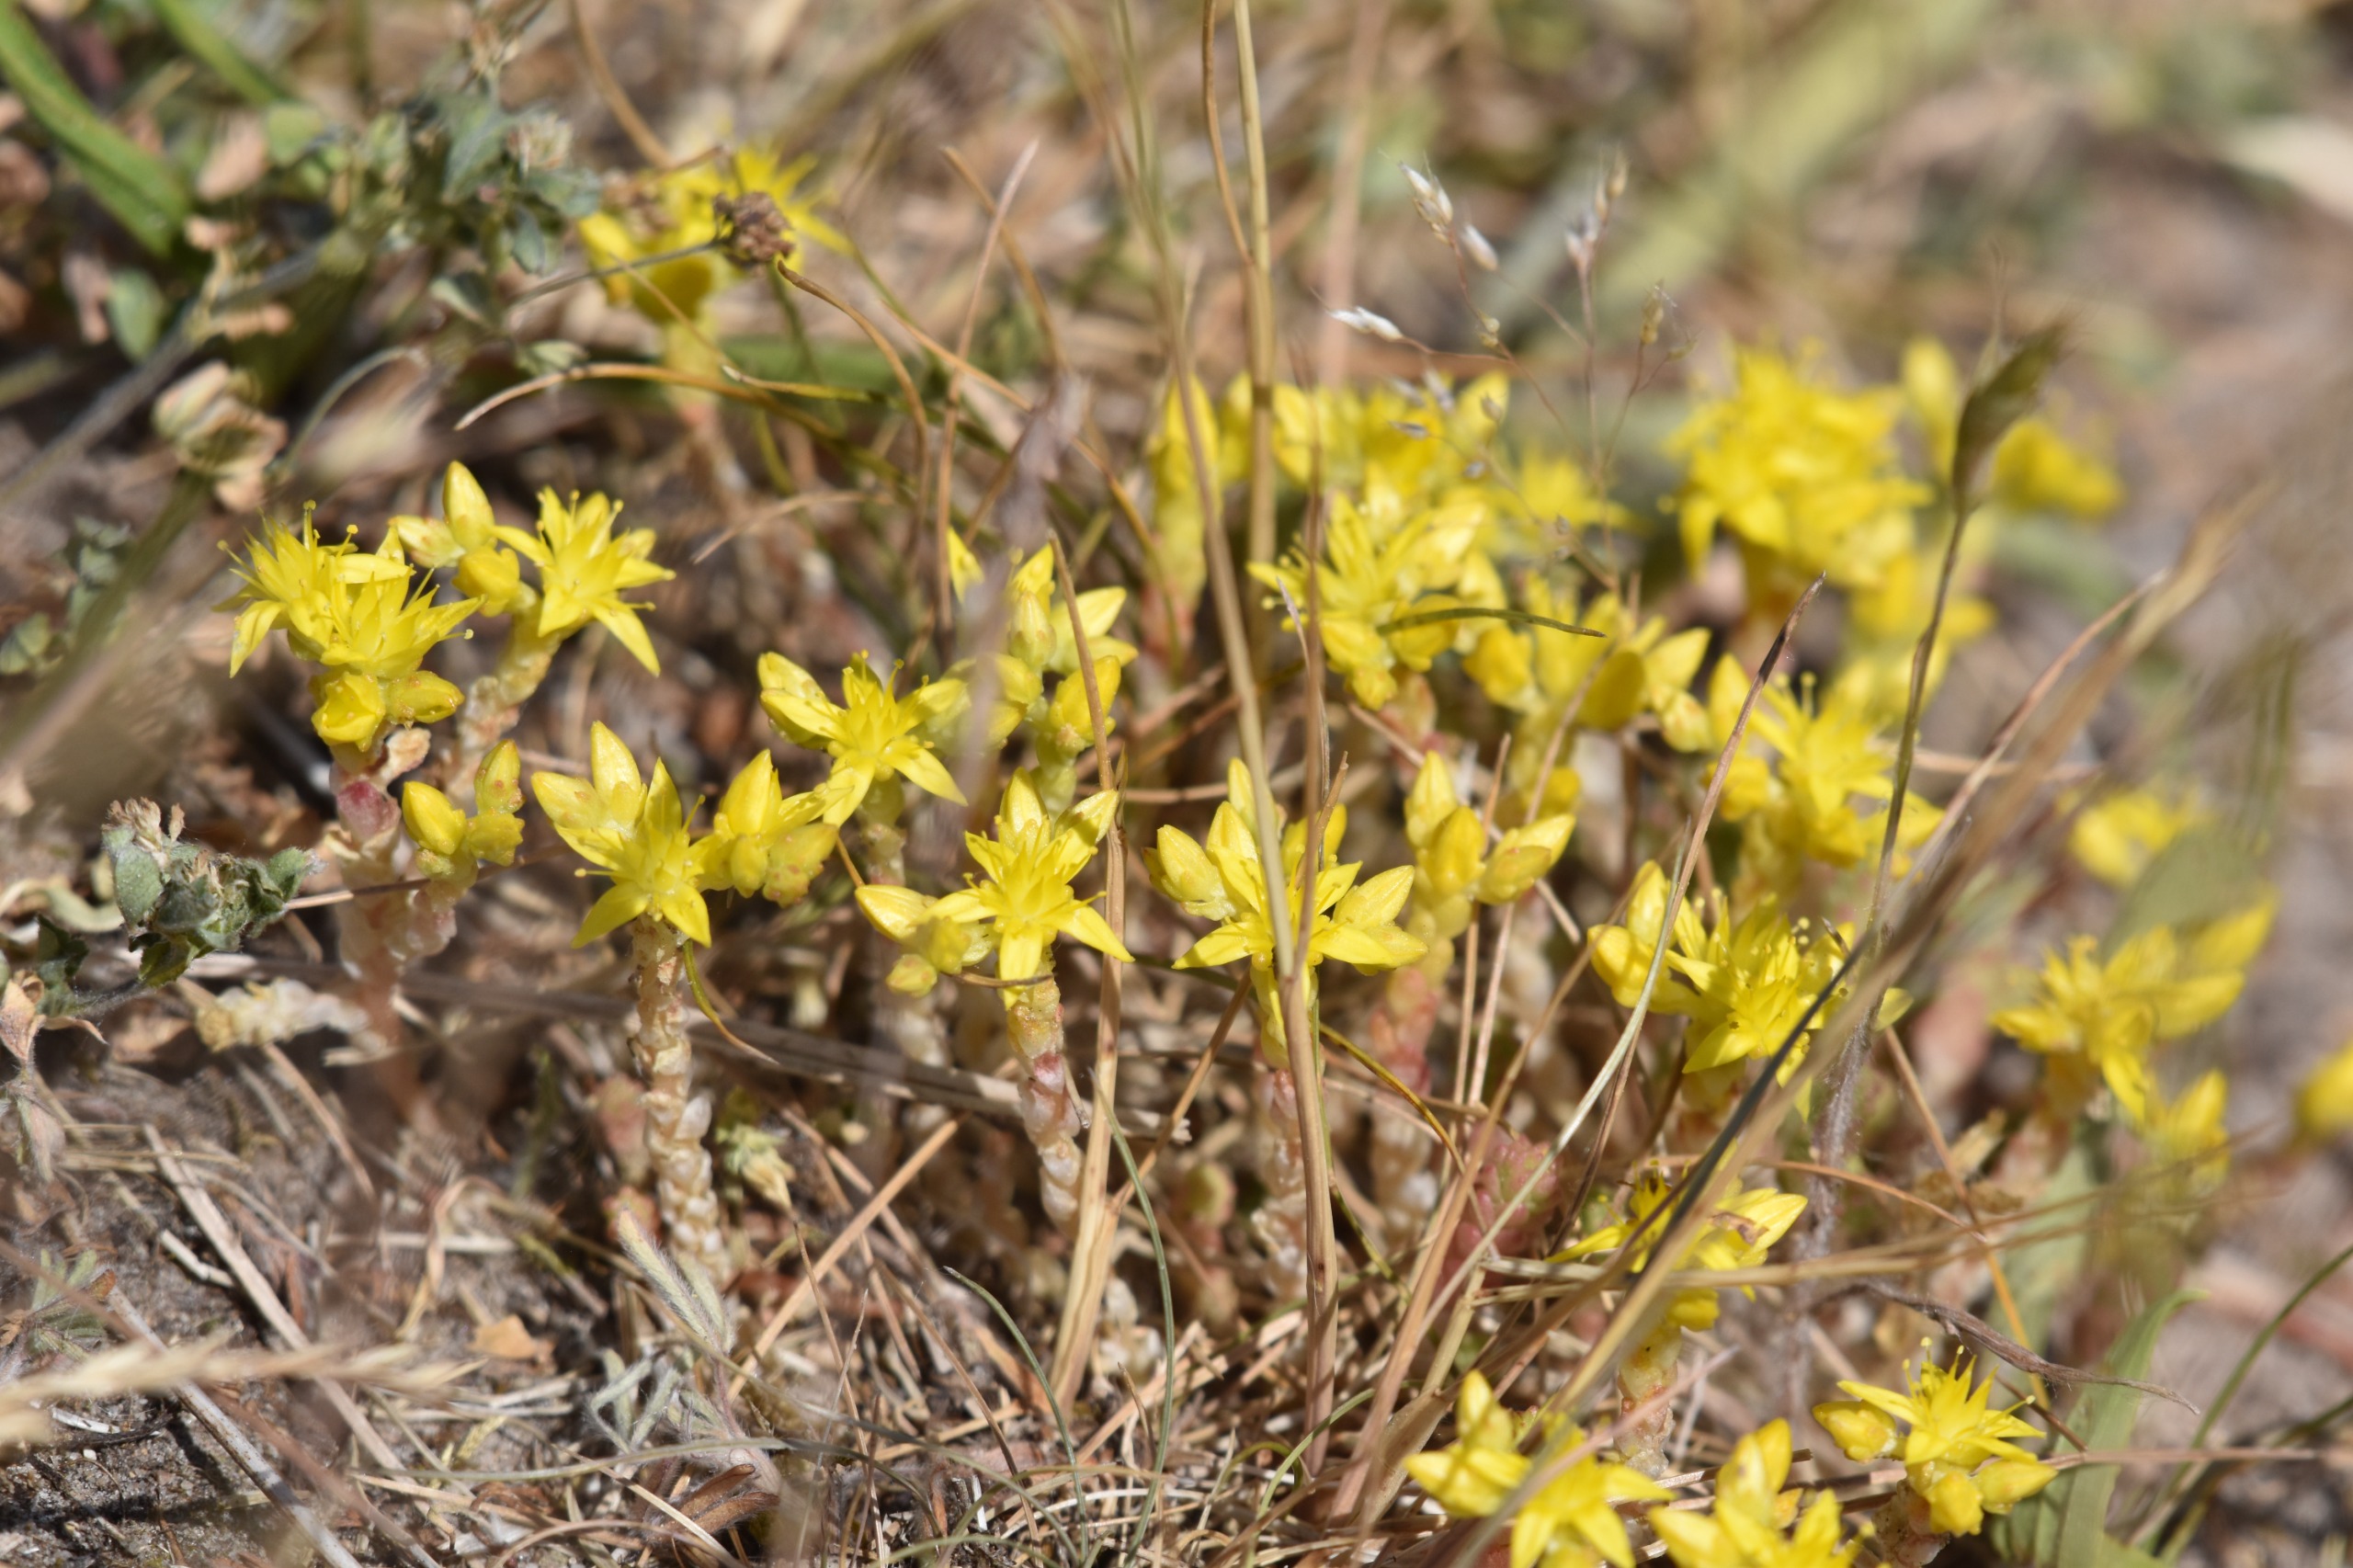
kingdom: Plantae
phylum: Tracheophyta
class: Magnoliopsida
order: Saxifragales
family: Crassulaceae
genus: Sedum
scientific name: Sedum acre
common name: Bidende stenurt
